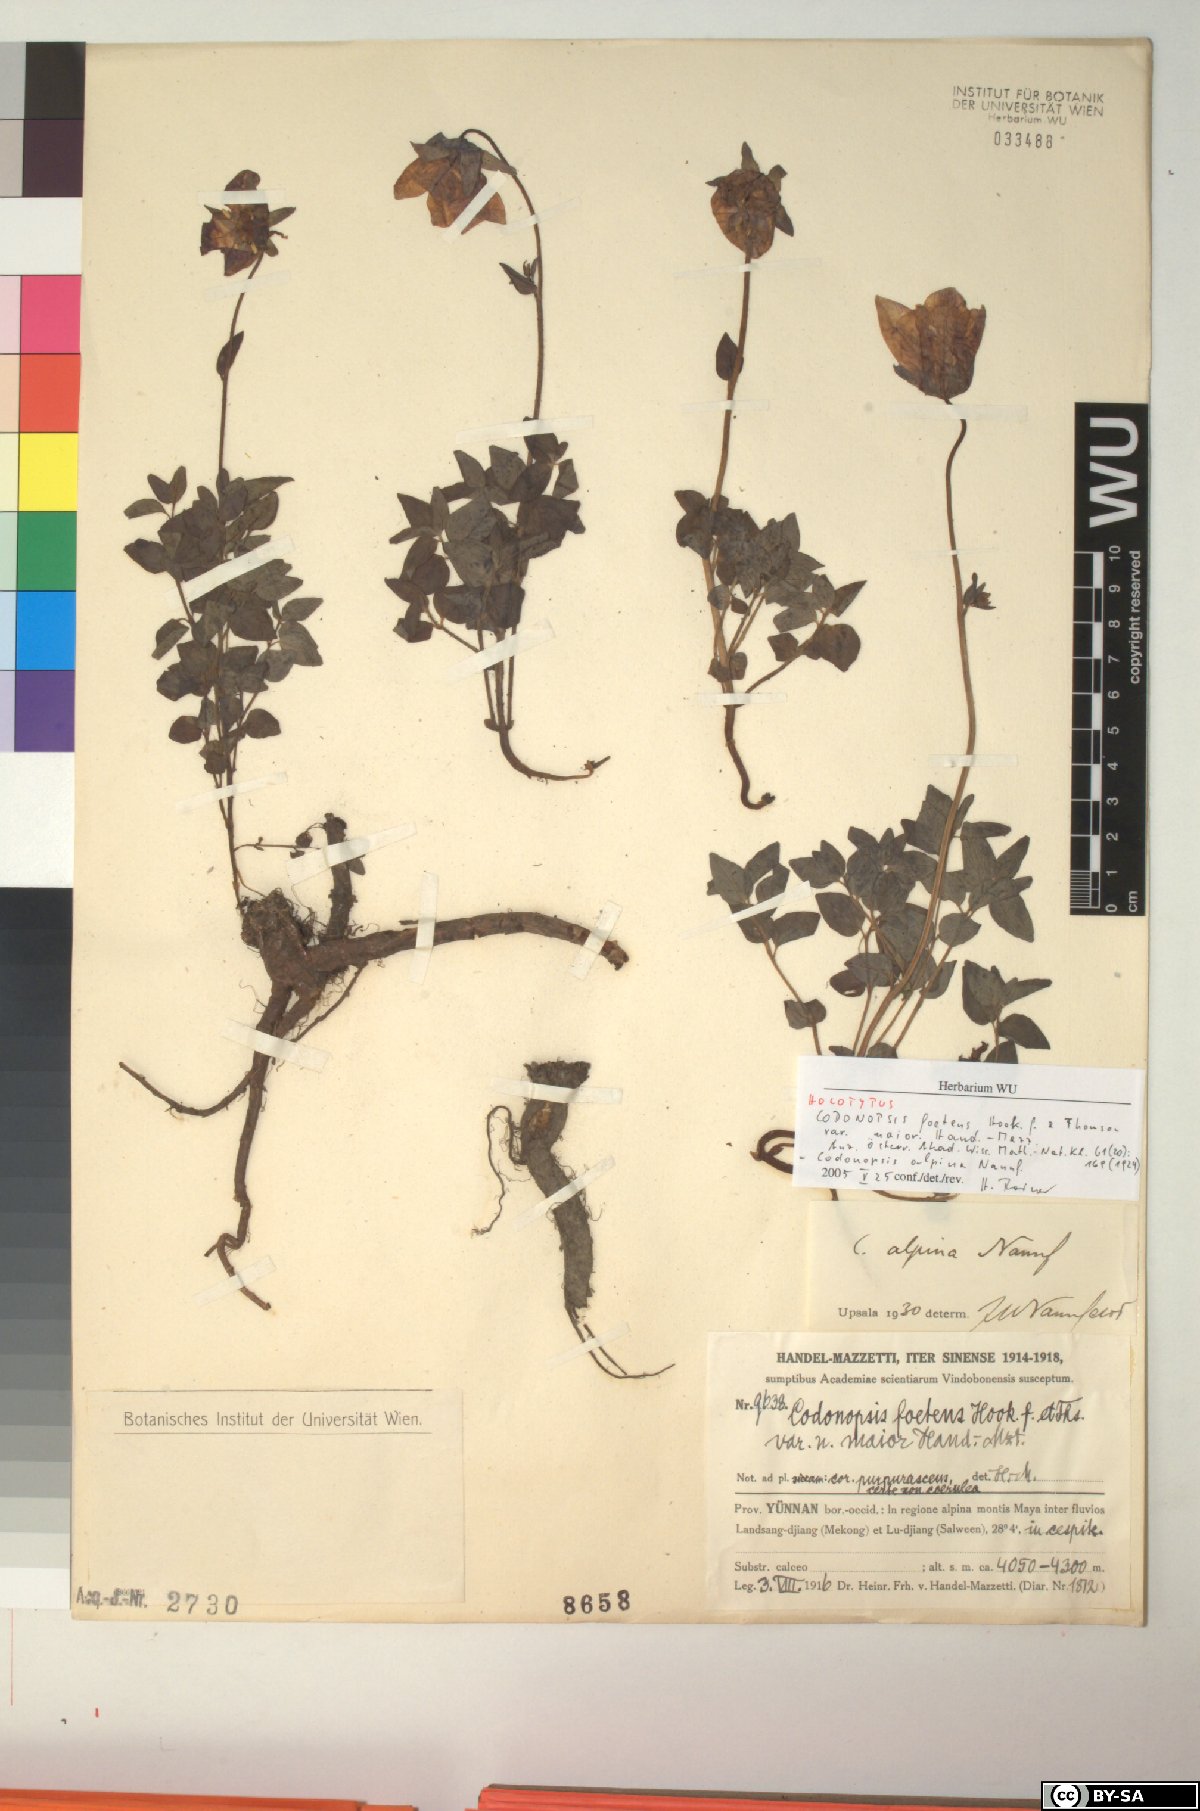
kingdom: Plantae
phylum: Tracheophyta
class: Magnoliopsida
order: Asterales
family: Campanulaceae
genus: Codonopsis
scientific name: Codonopsis foetens
